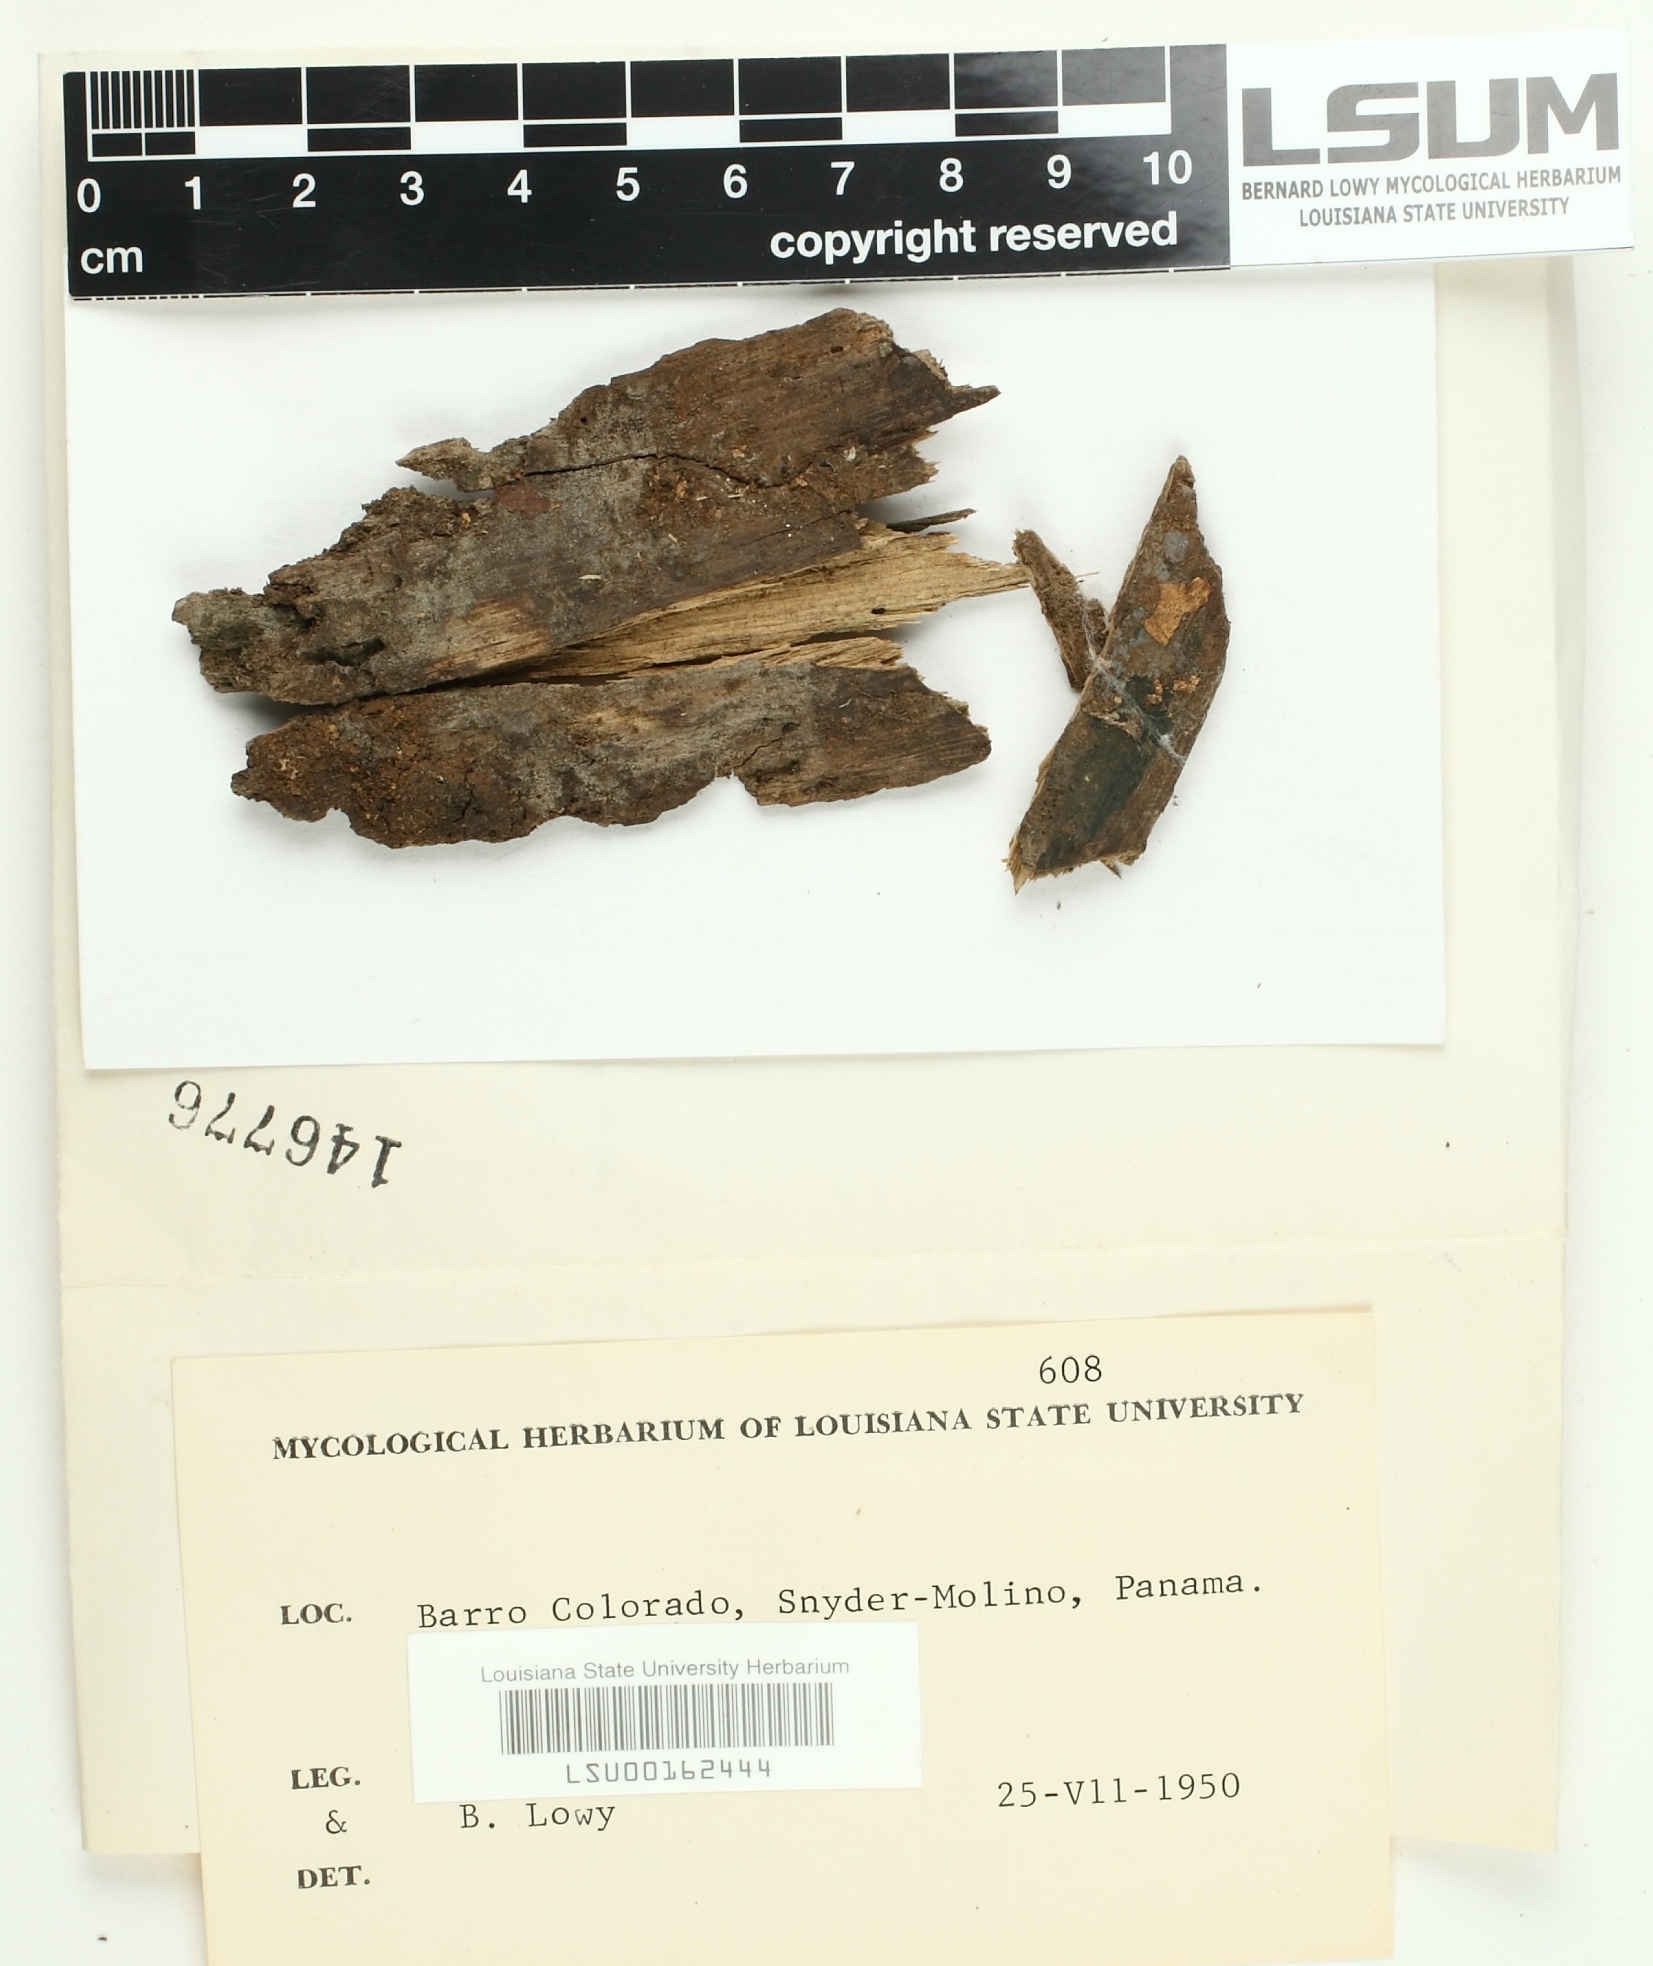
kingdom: Fungi
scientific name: Fungi
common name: Fungi
